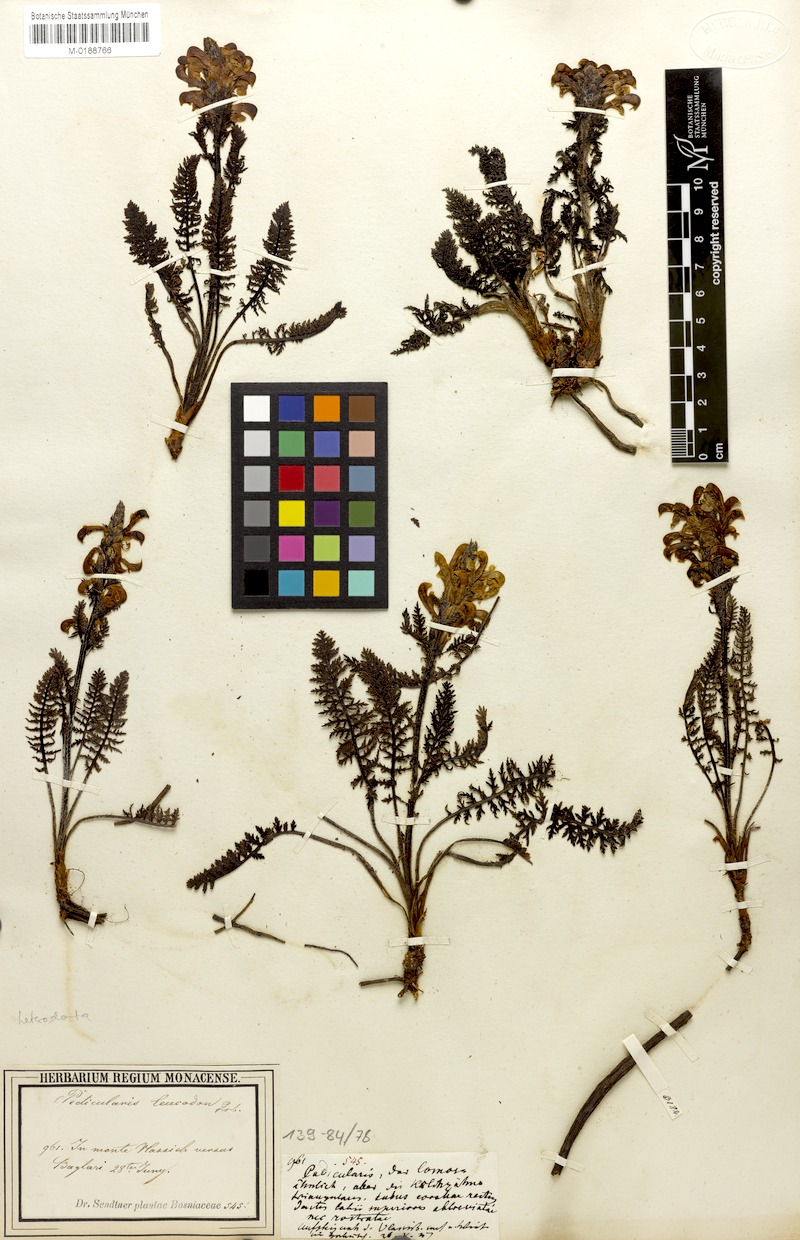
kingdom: Plantae
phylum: Tracheophyta
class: Magnoliopsida
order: Lamiales
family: Orobanchaceae
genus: Pedicularis
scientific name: Pedicularis leucodon
